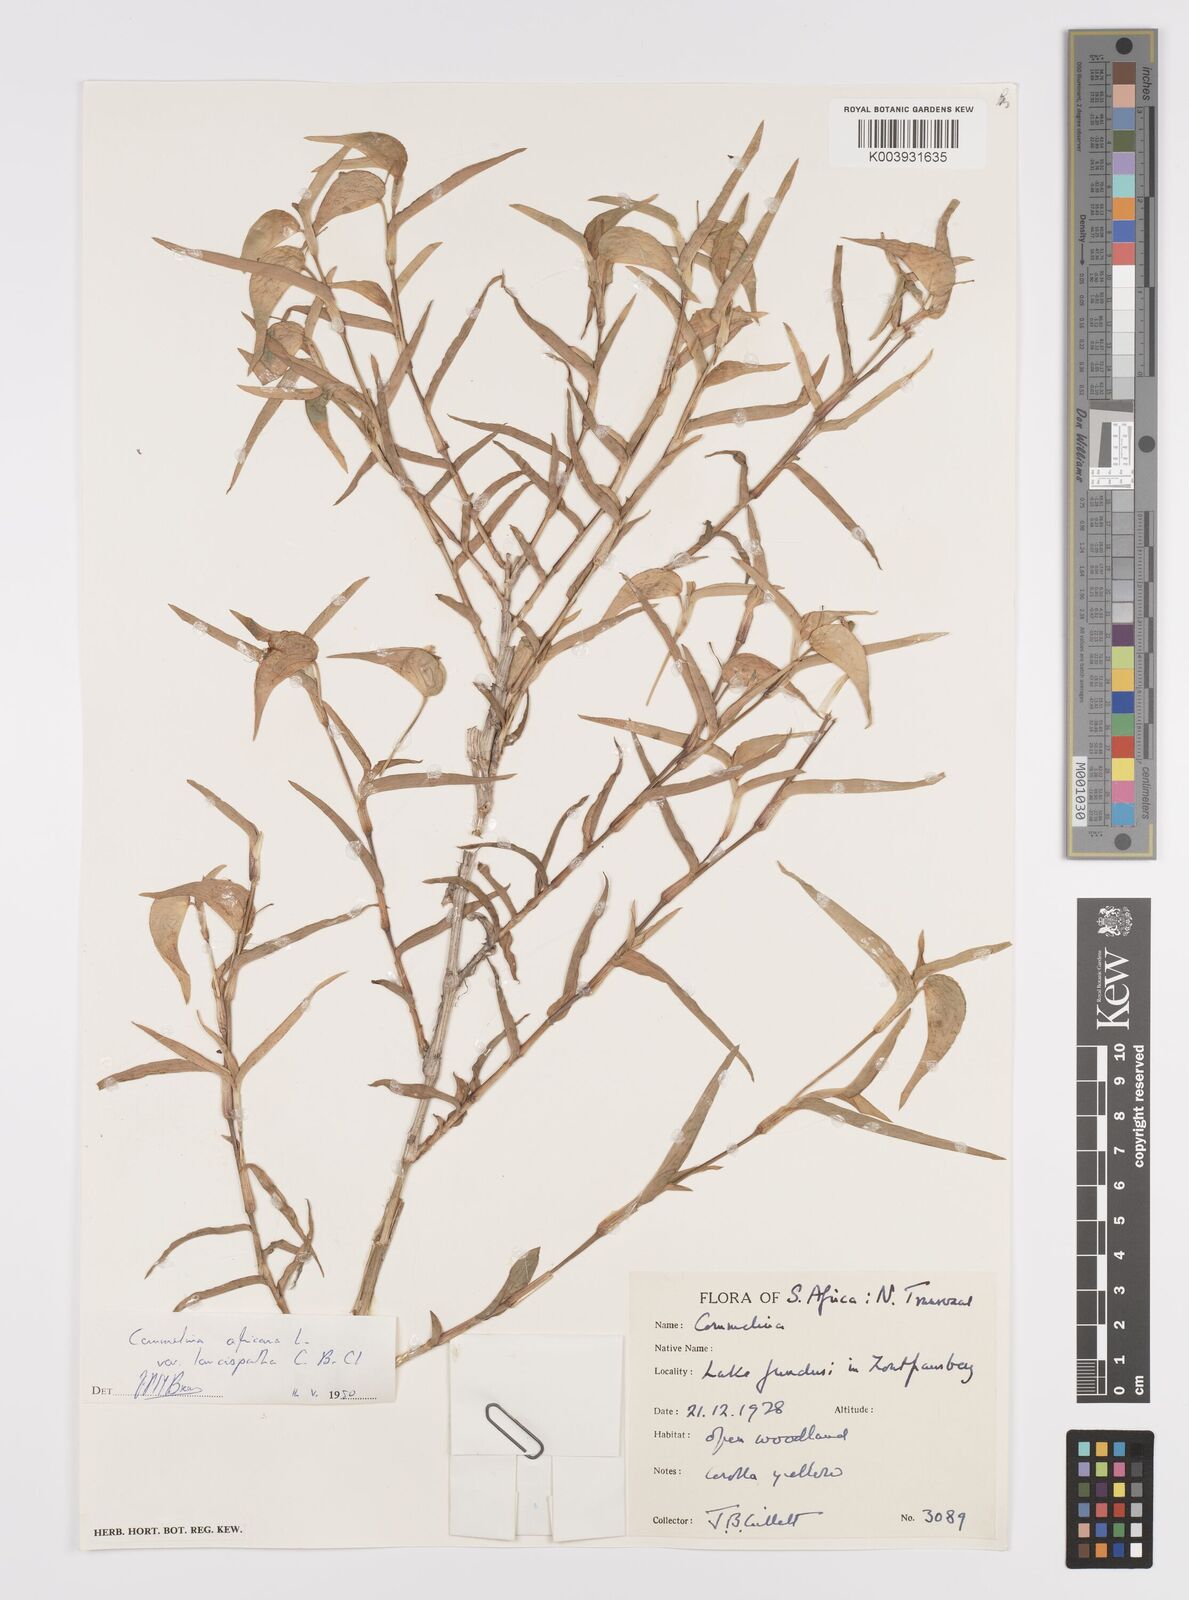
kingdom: Plantae
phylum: Tracheophyta
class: Liliopsida
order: Commelinales
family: Commelinaceae
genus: Commelina
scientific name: Commelina africana
